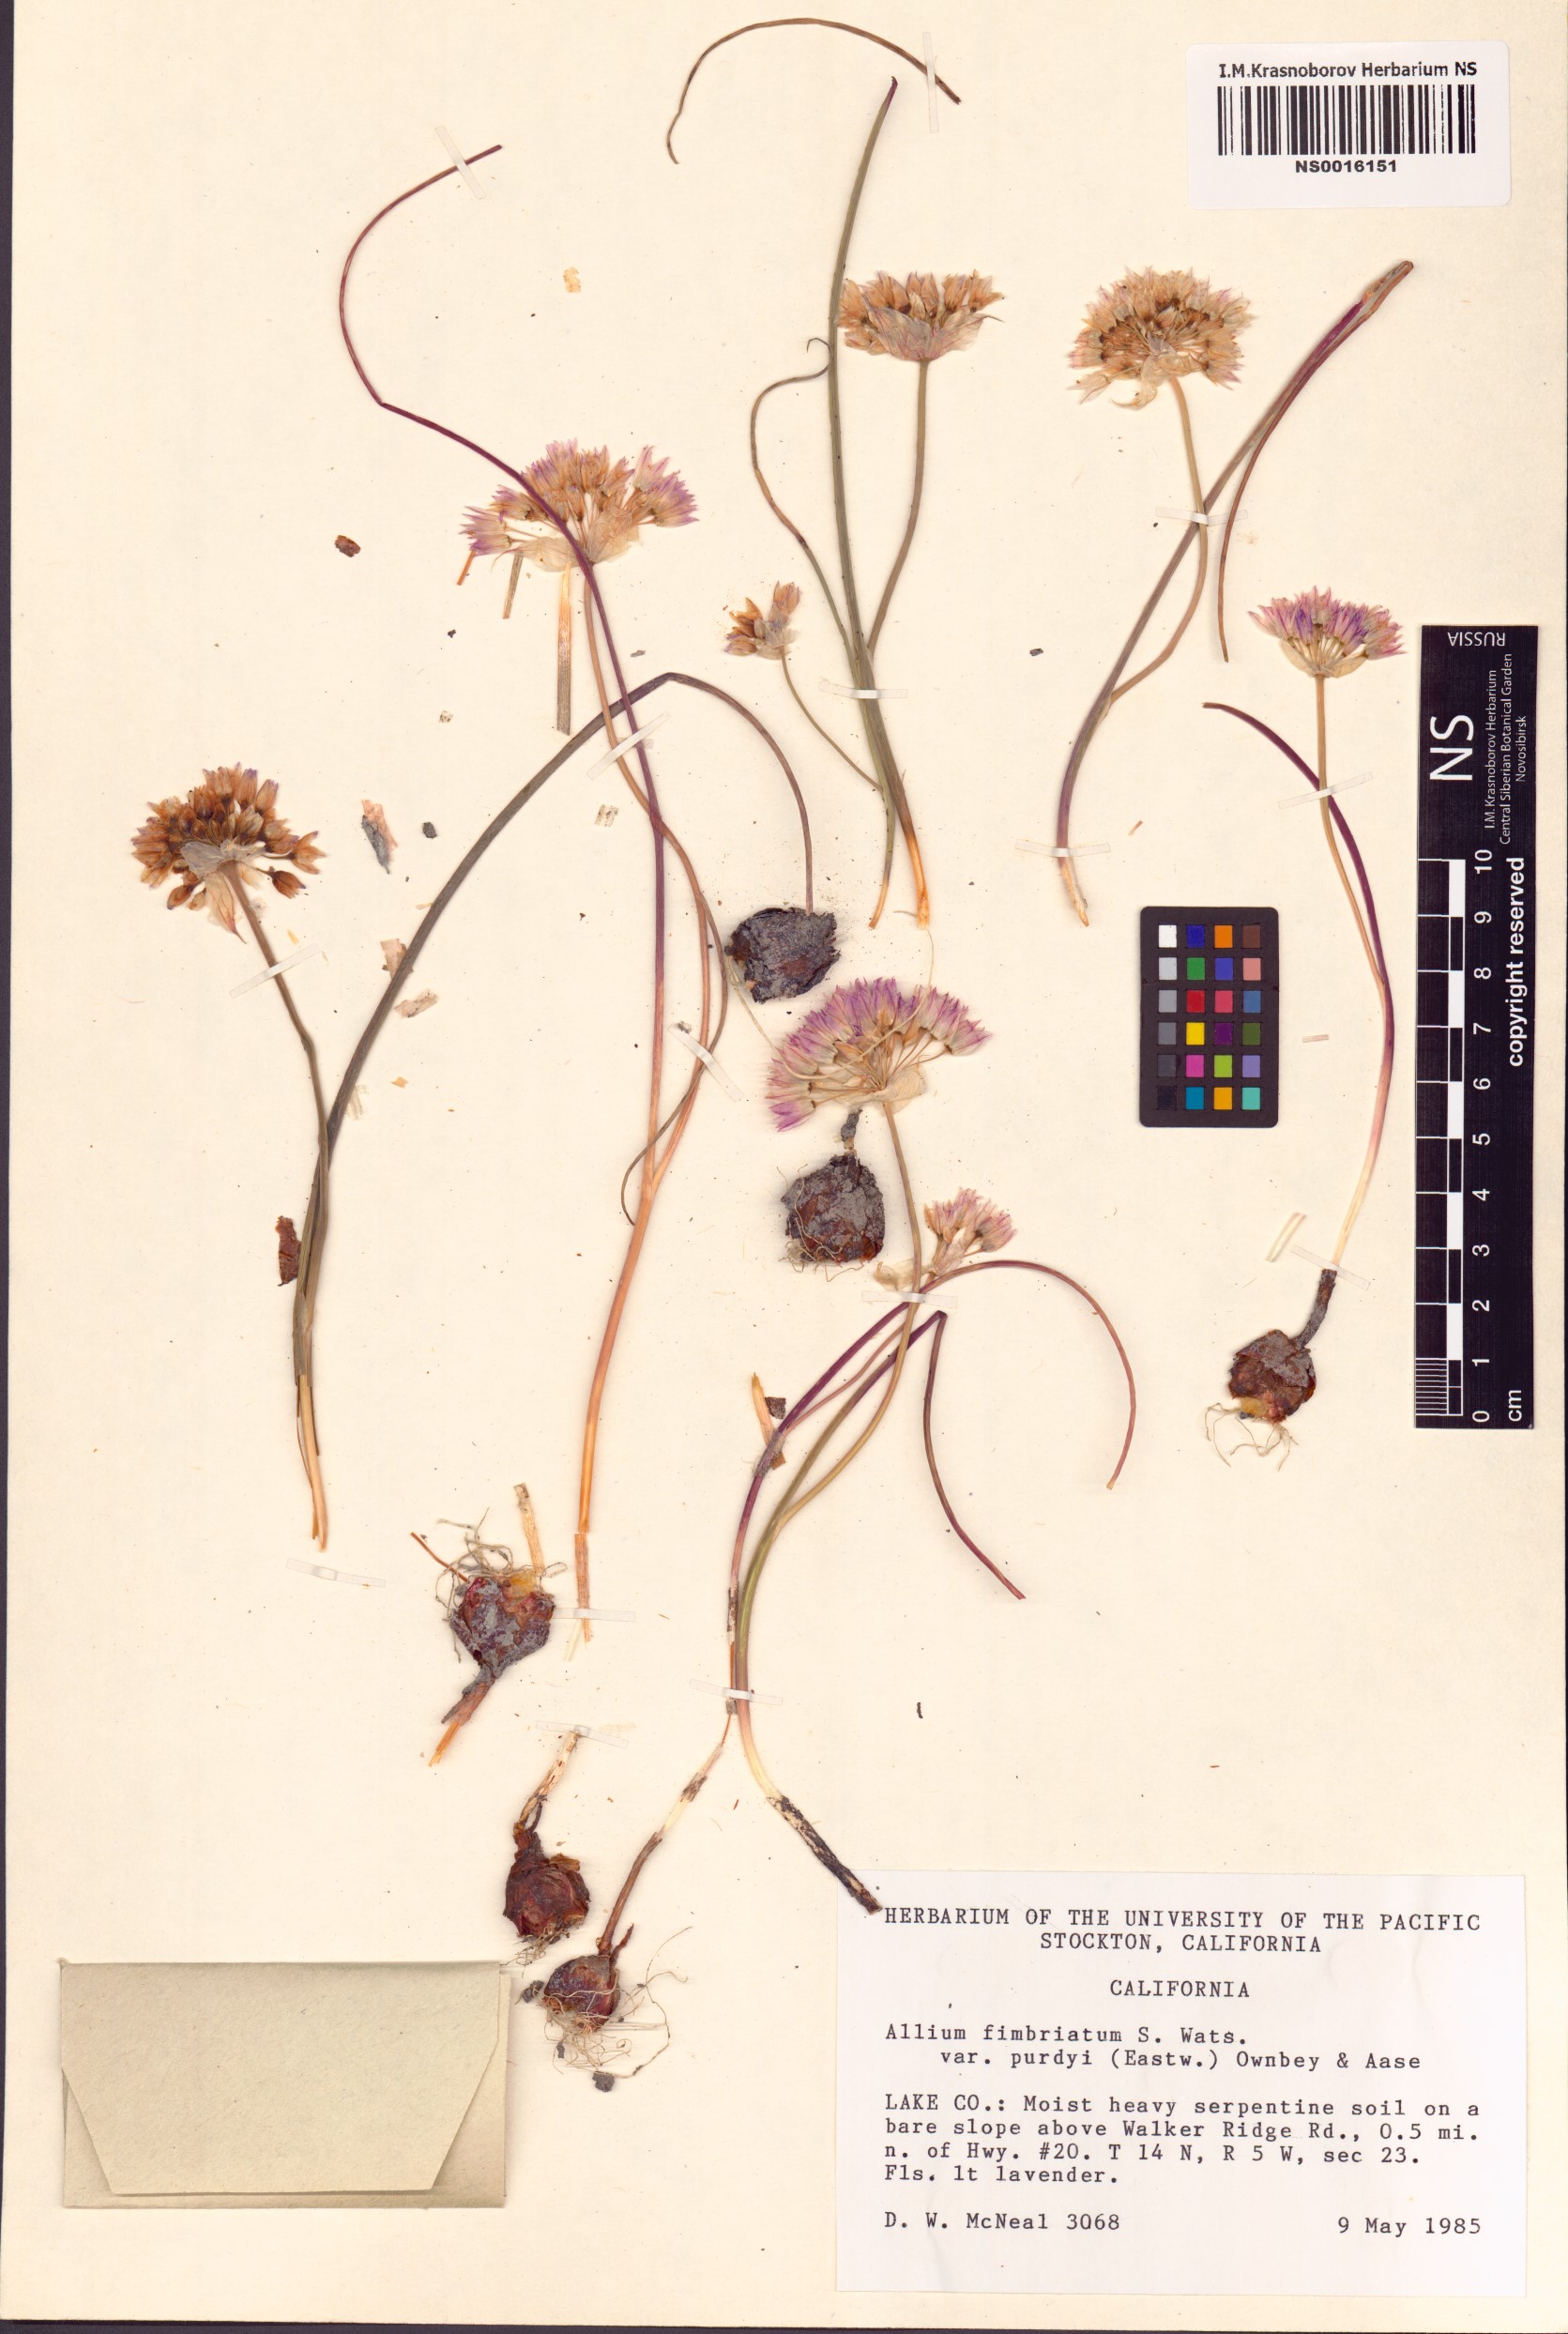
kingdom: Plantae
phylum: Tracheophyta
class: Liliopsida
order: Asparagales
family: Amaryllidaceae
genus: Allium
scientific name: Allium fimbriatum
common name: Fringed onion
